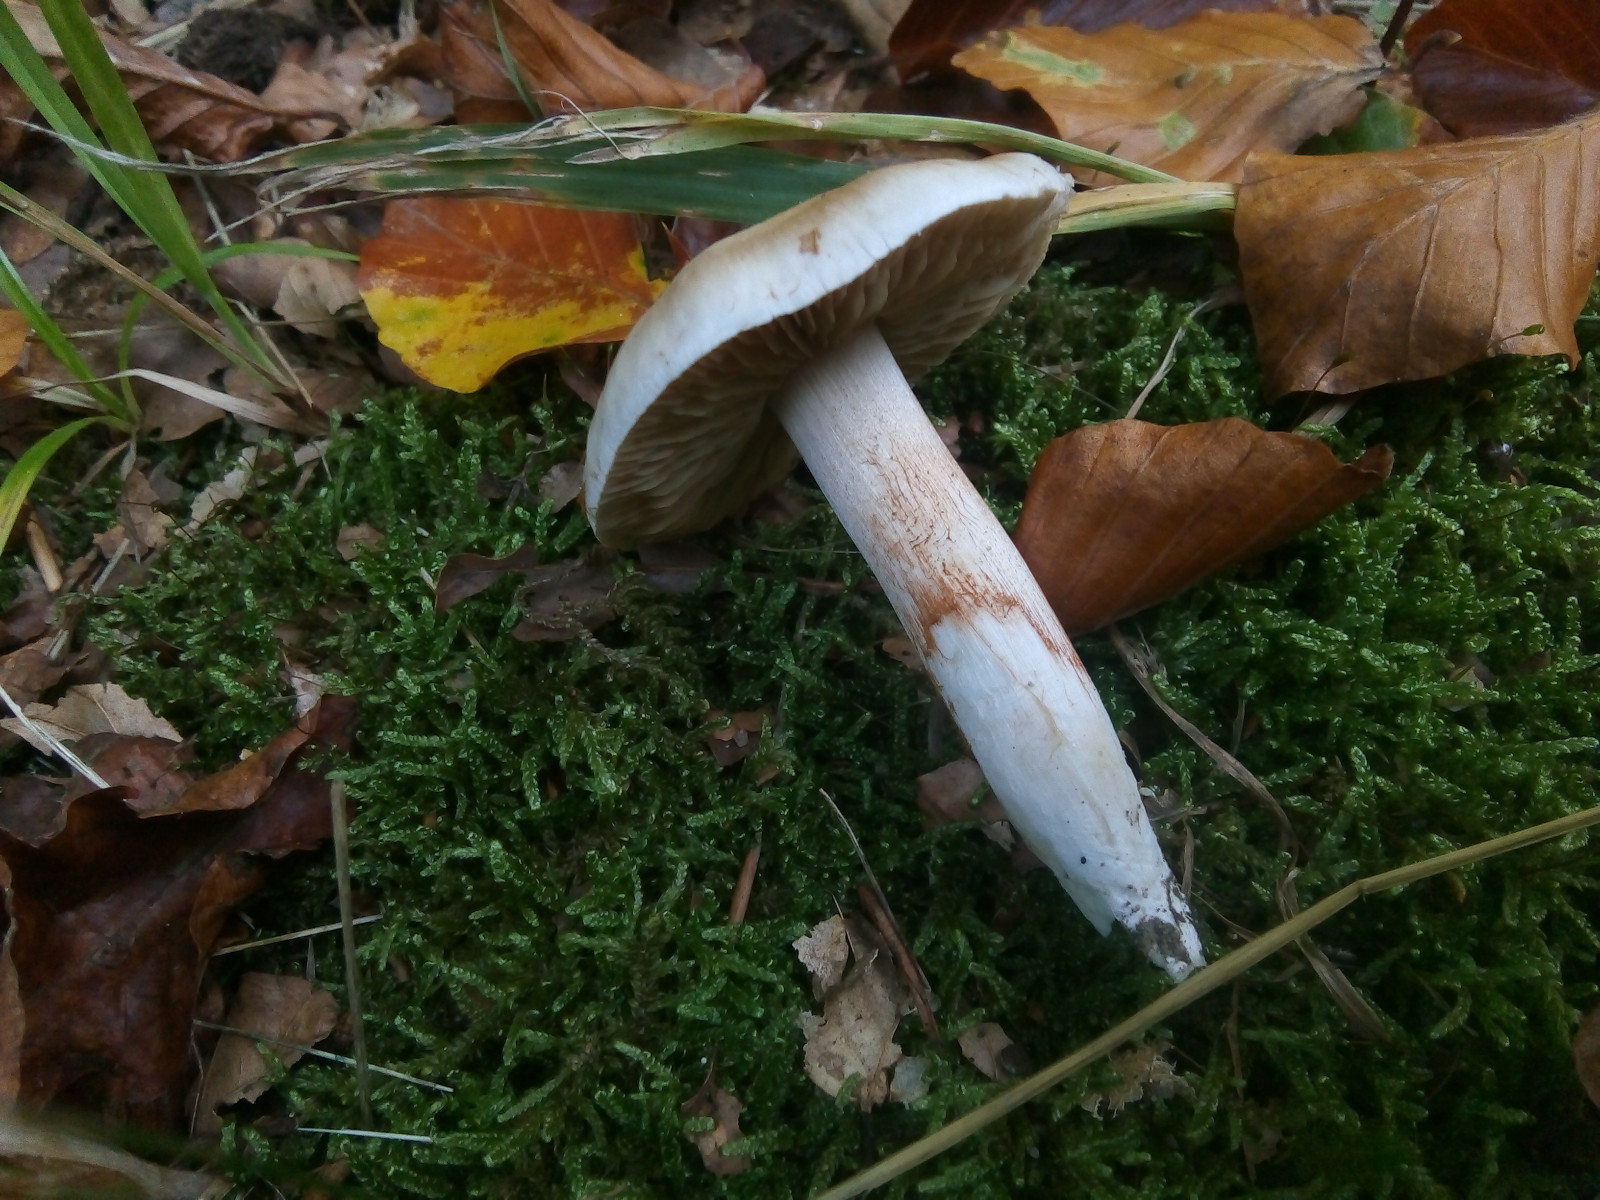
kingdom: Fungi
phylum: Basidiomycota
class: Agaricomycetes
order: Agaricales
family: Cortinariaceae
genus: Thaxterogaster
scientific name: Thaxterogaster barbatus
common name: elfenbens-slørhat
